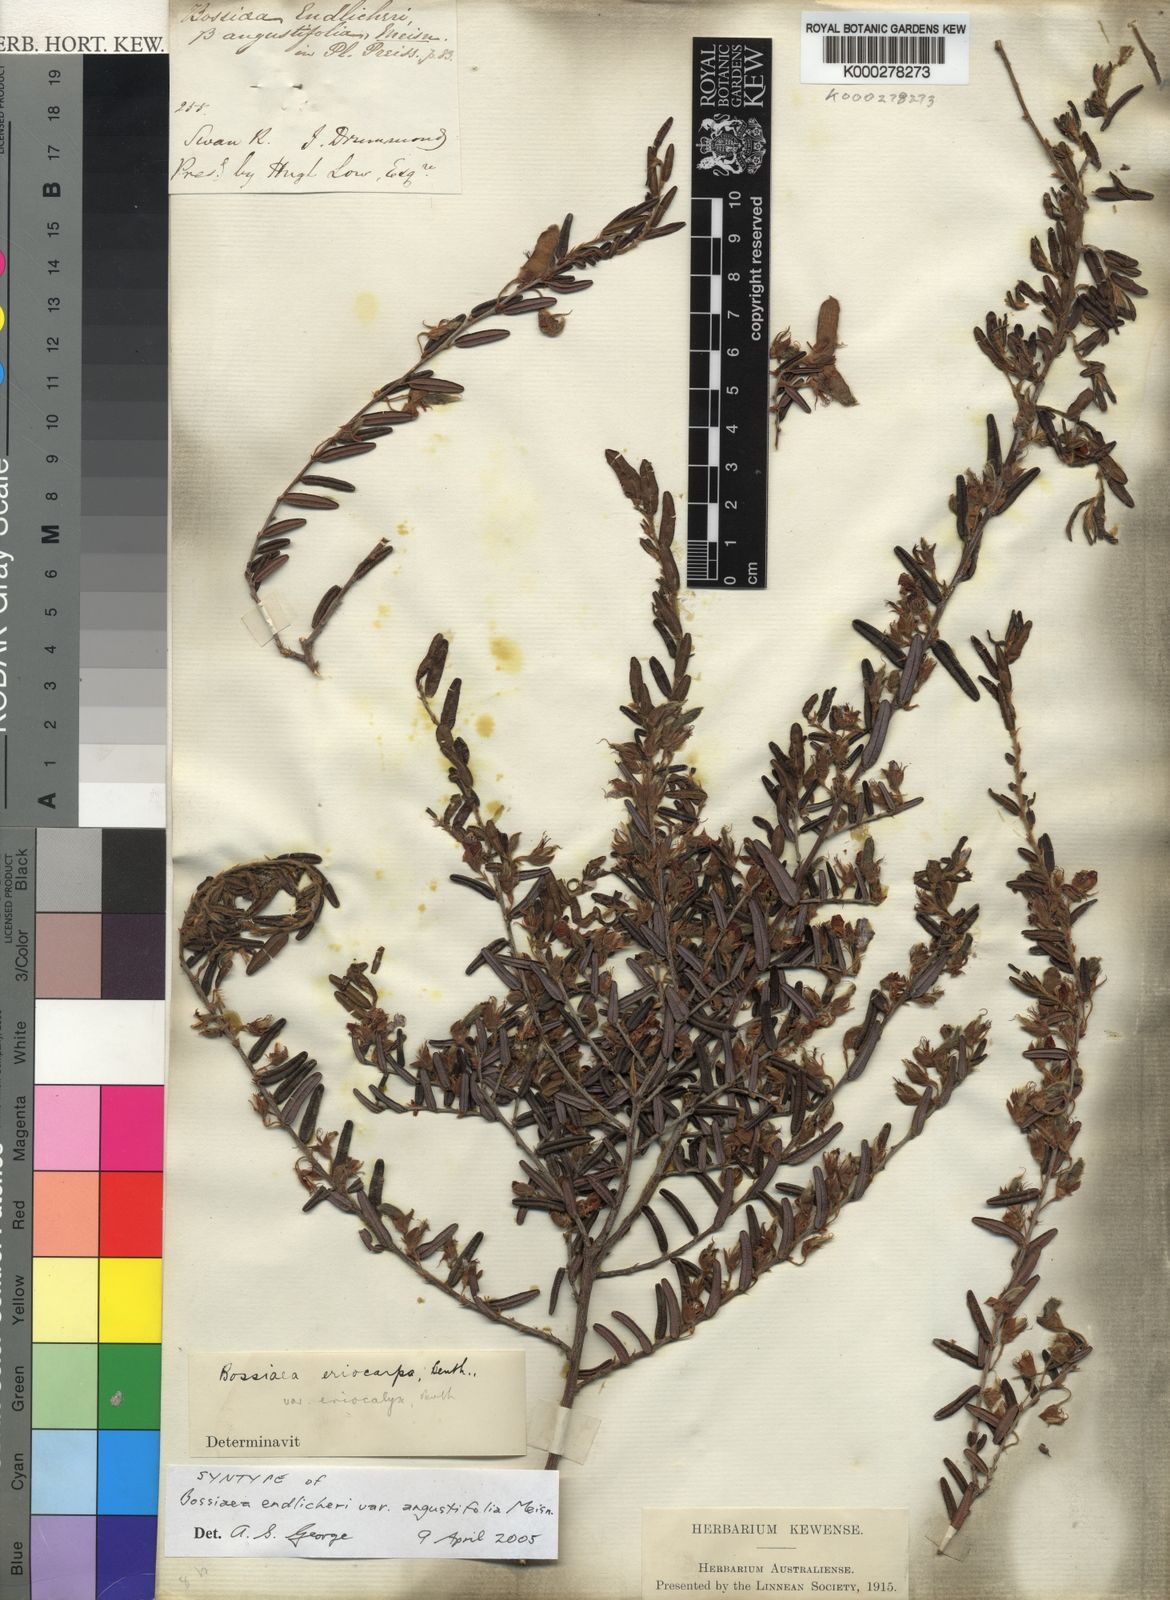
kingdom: Plantae
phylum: Tracheophyta
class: Magnoliopsida
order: Fabales
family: Fabaceae
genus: Bossiaea
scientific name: Bossiaea eriocarpa
